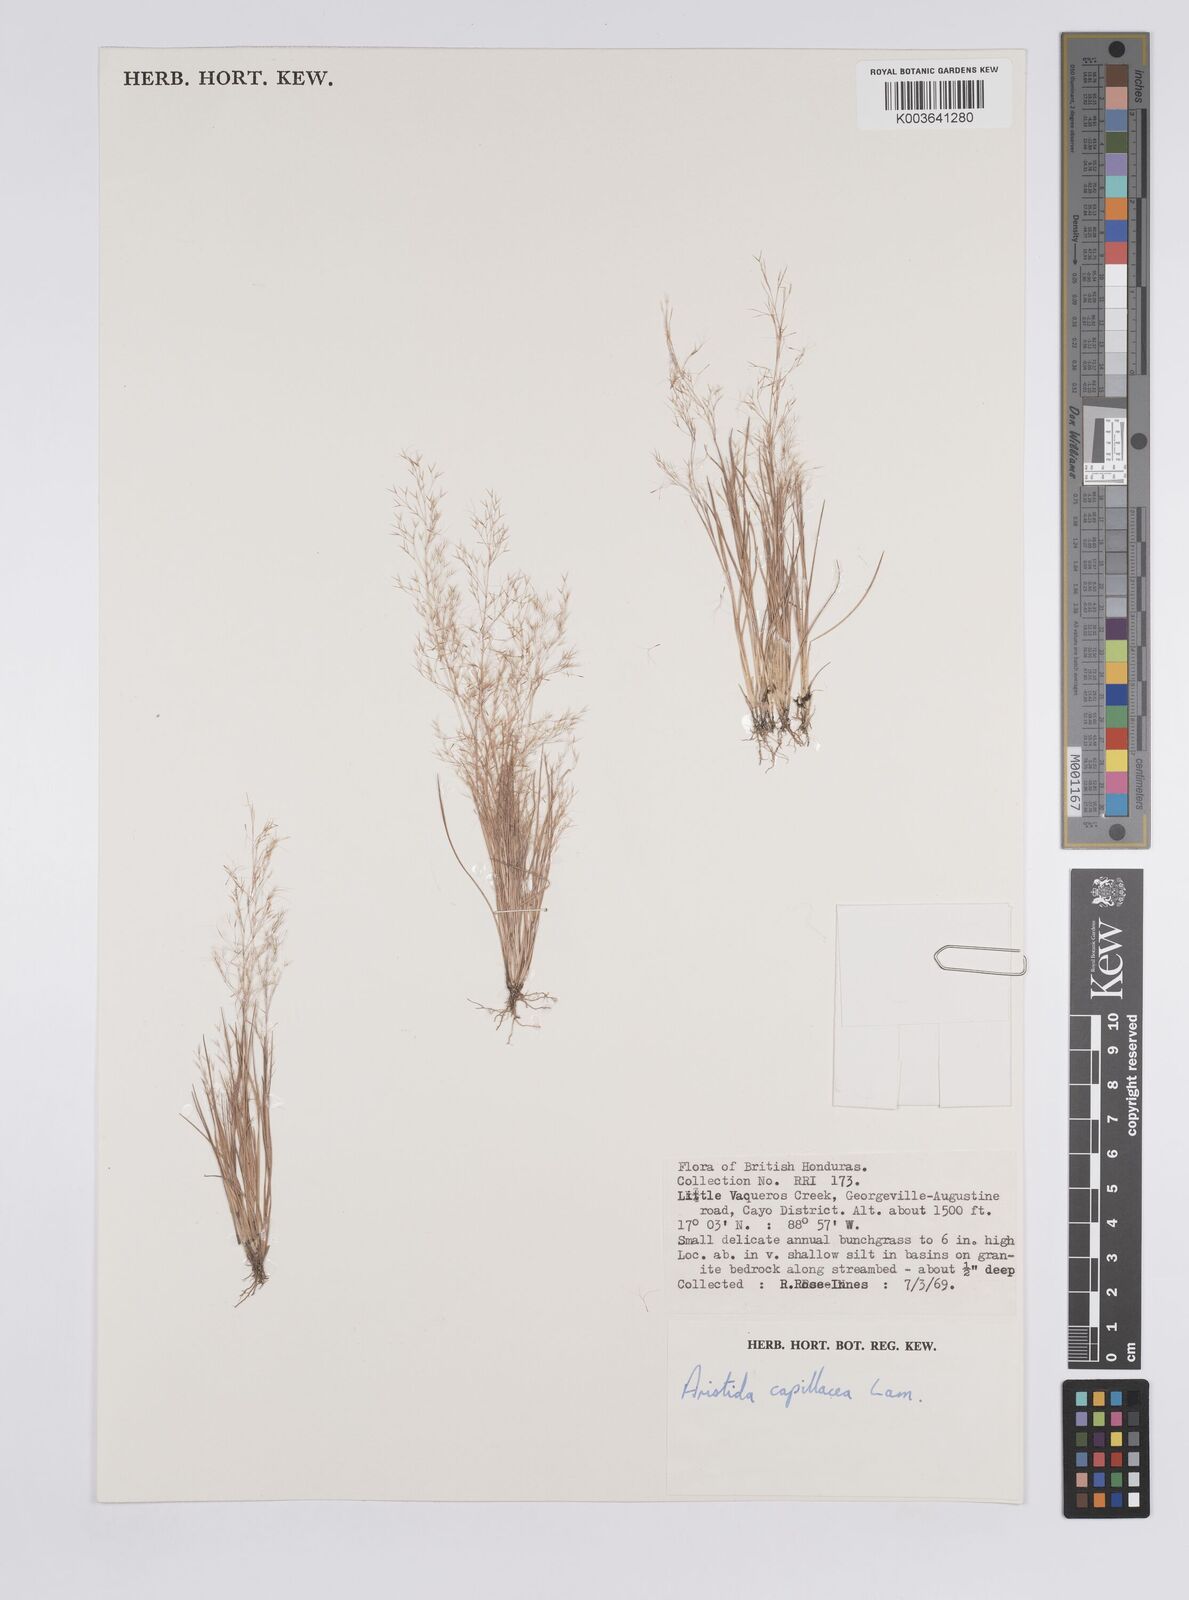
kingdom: Plantae
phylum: Tracheophyta
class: Liliopsida
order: Poales
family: Poaceae
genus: Aristida
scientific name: Aristida capillacea
